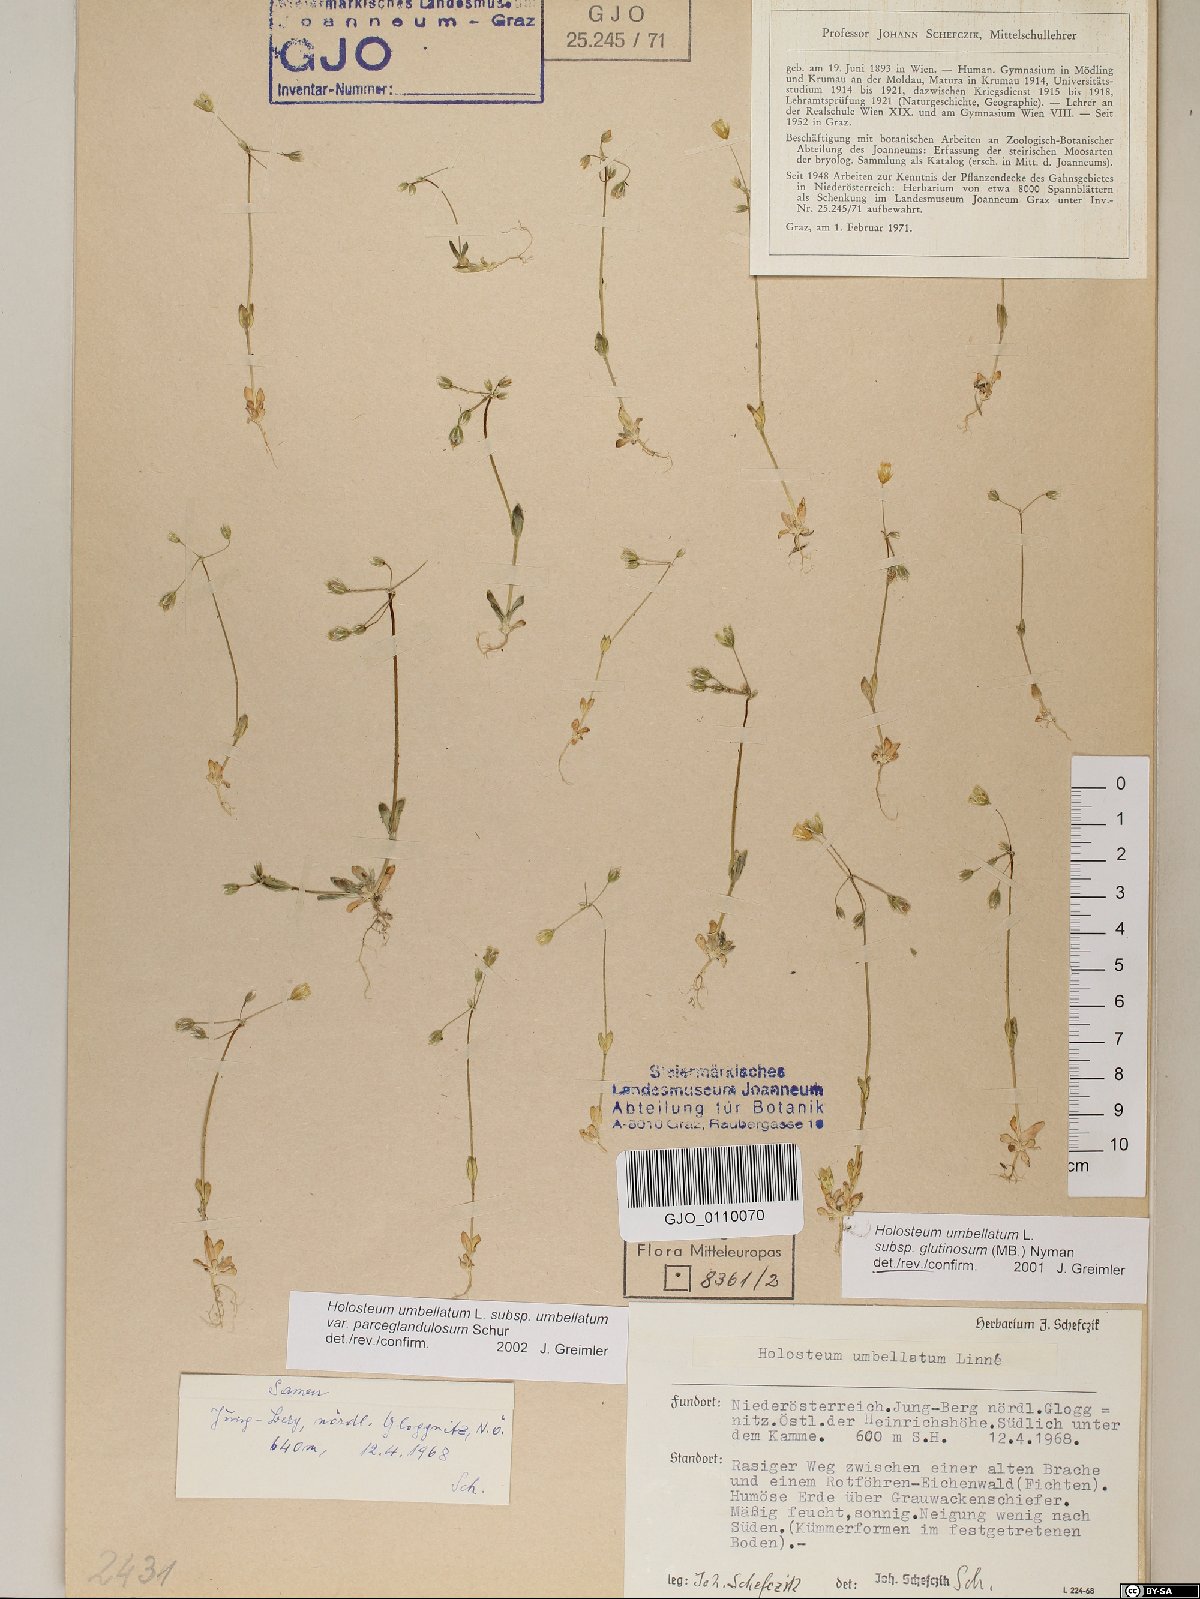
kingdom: Plantae
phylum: Tracheophyta
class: Magnoliopsida
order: Caryophyllales
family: Caryophyllaceae
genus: Holosteum
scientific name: Holosteum umbellatum
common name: Jagged chickweed
